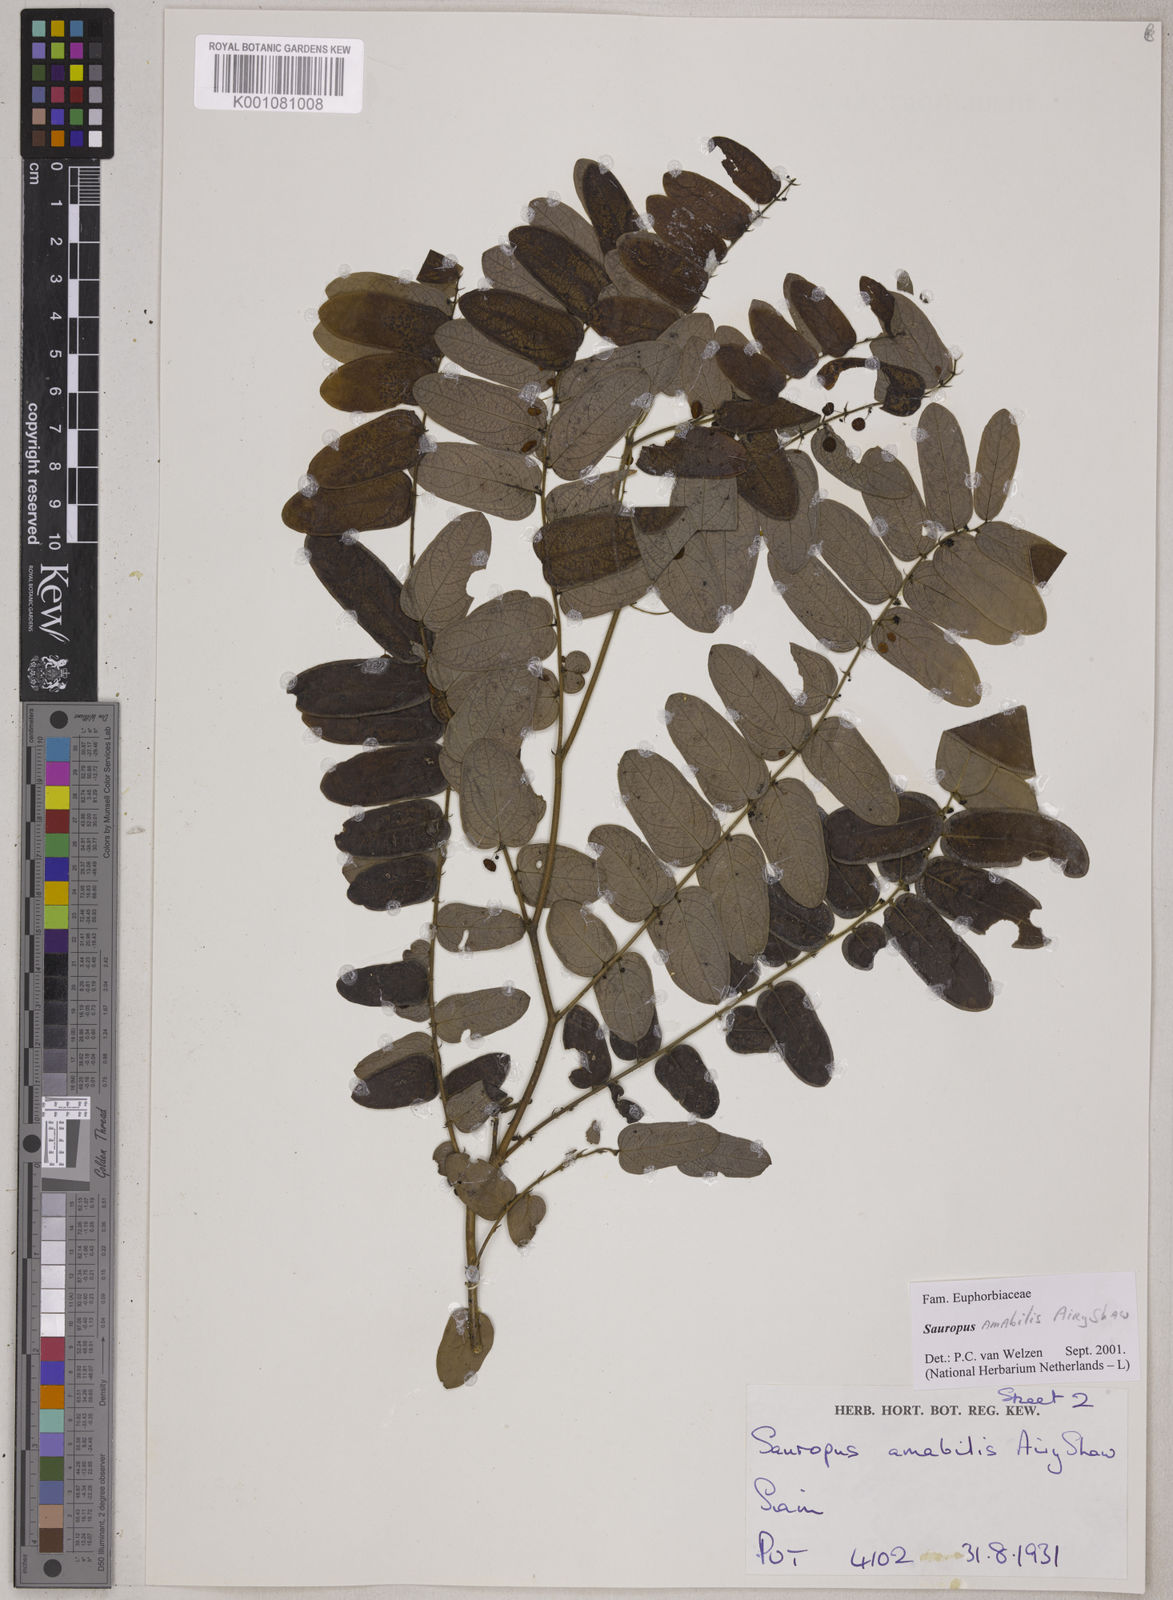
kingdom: Plantae
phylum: Tracheophyta
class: Magnoliopsida
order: Malpighiales
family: Phyllanthaceae
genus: Breynia
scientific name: Breynia amabilis
